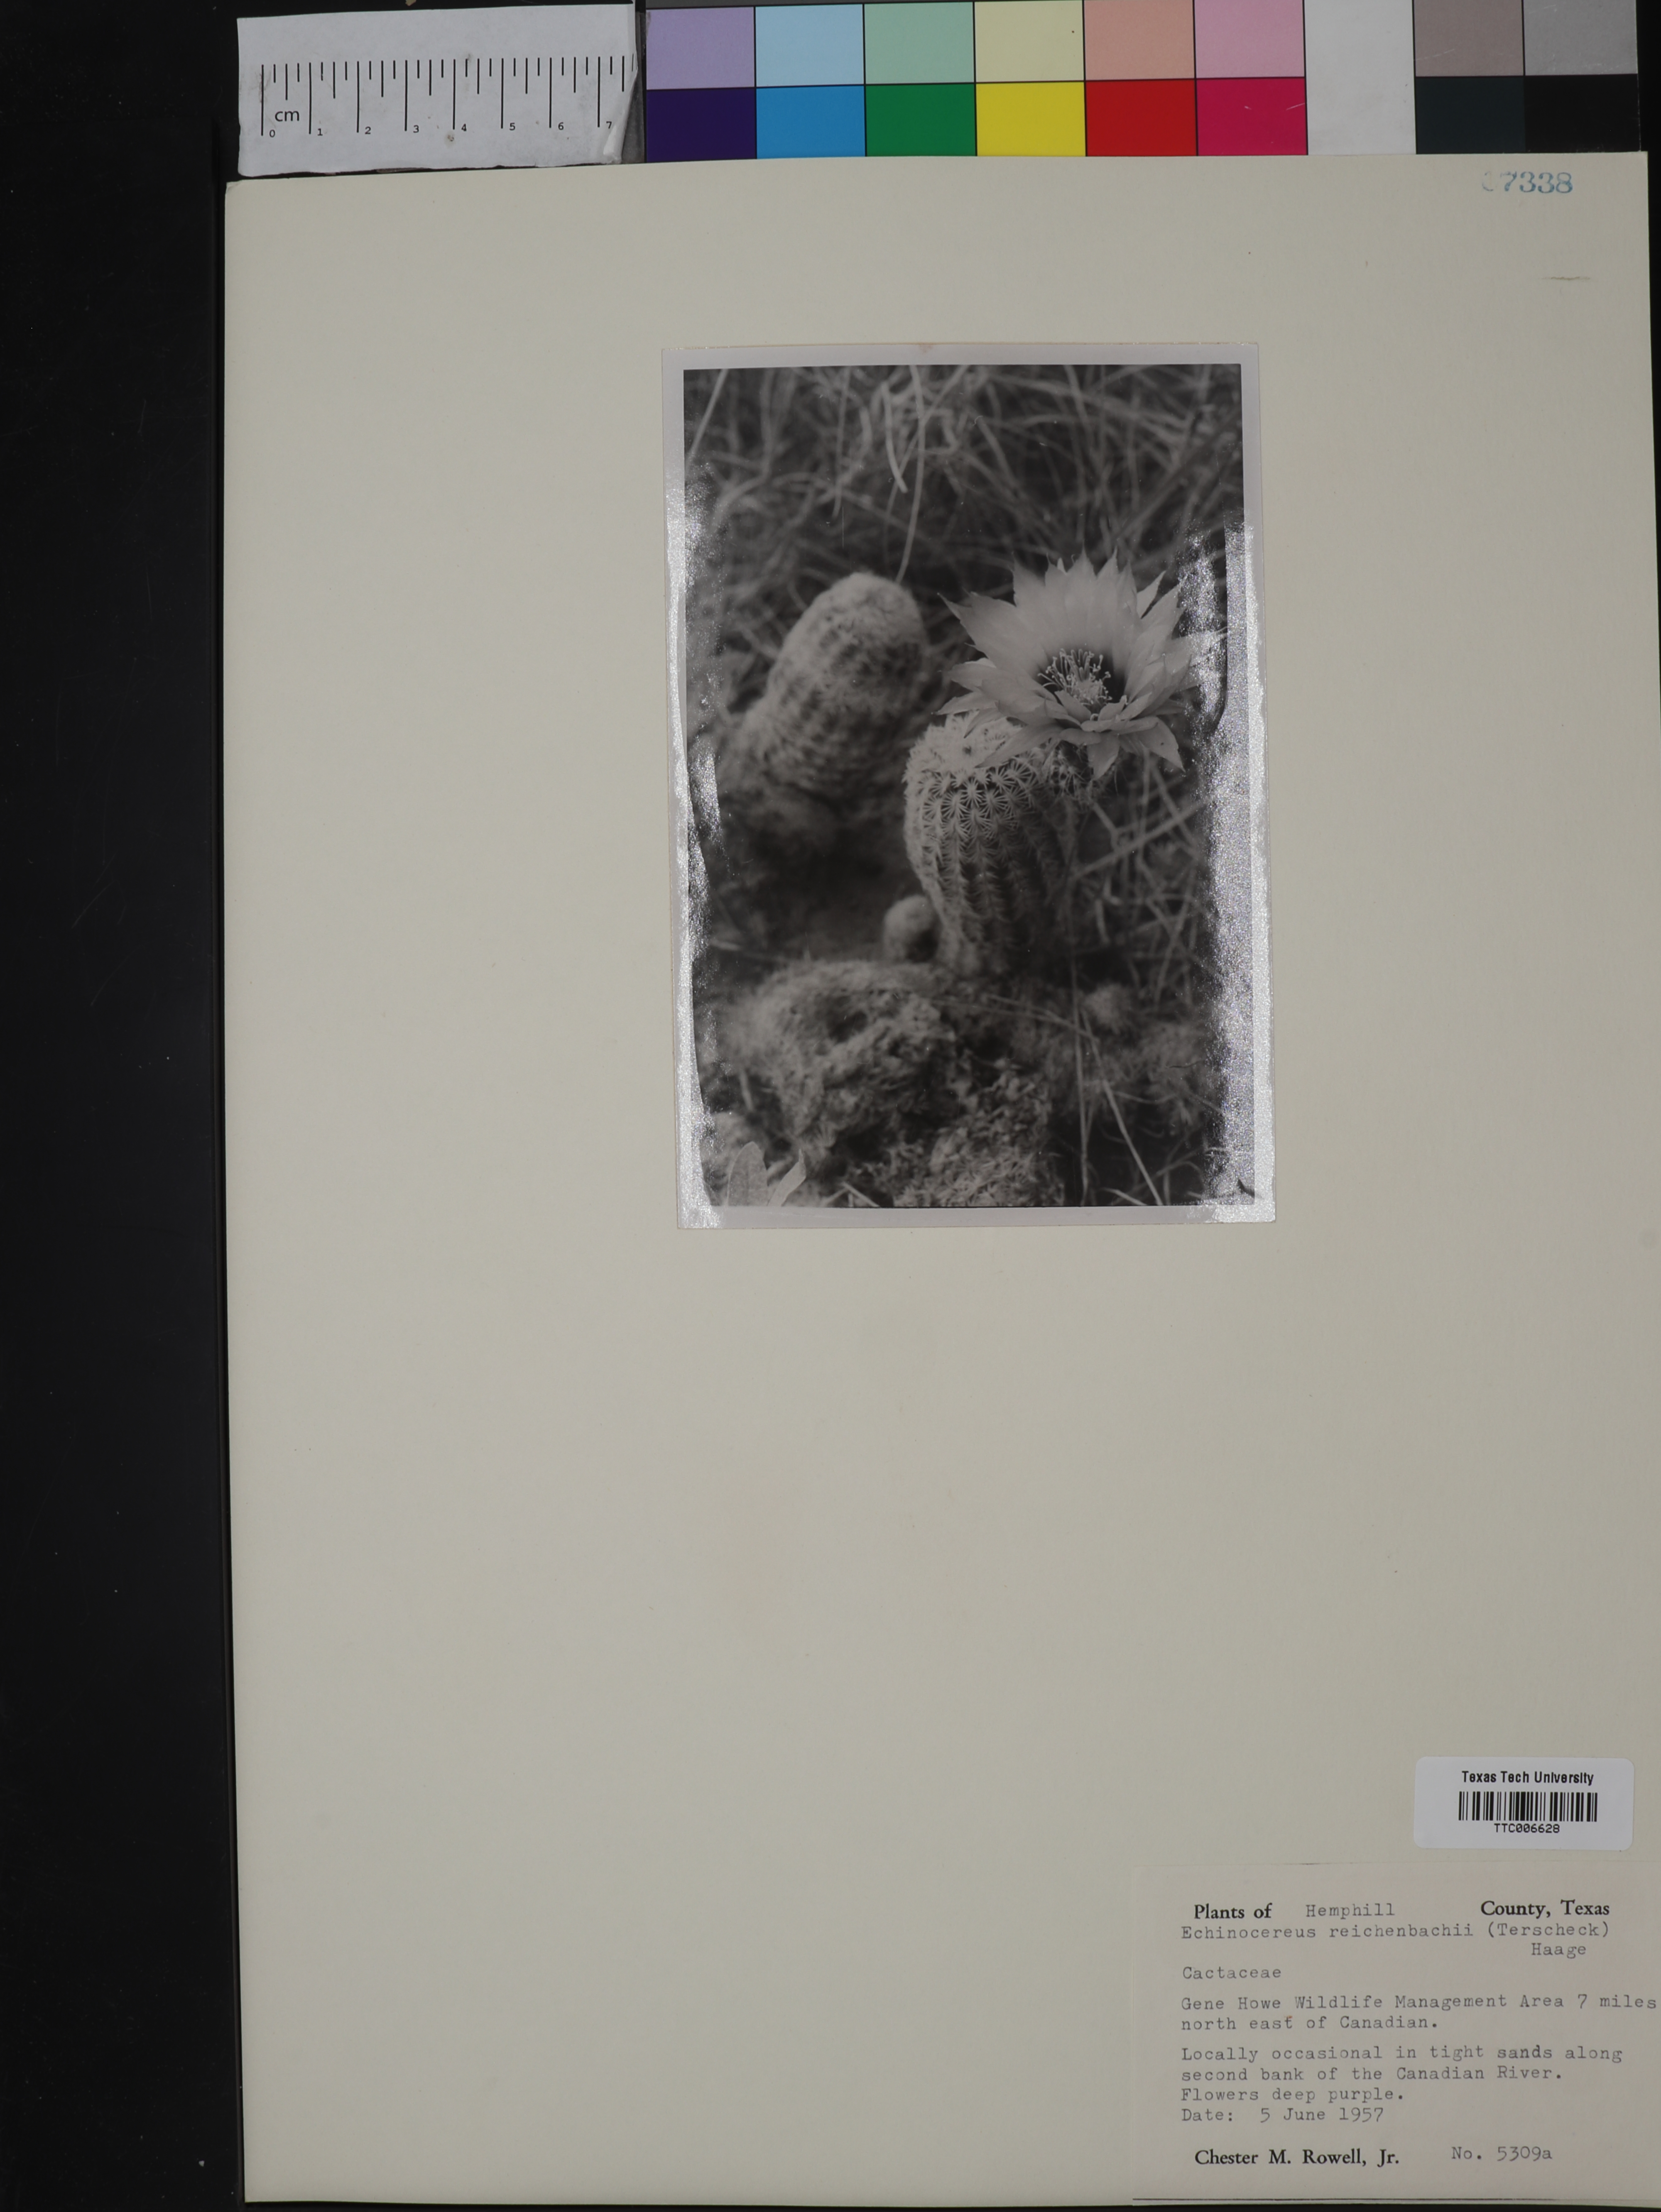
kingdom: Plantae
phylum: Tracheophyta
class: Magnoliopsida
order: Caryophyllales
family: Cactaceae
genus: Echinocereus
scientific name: Echinocereus reichenbachii
